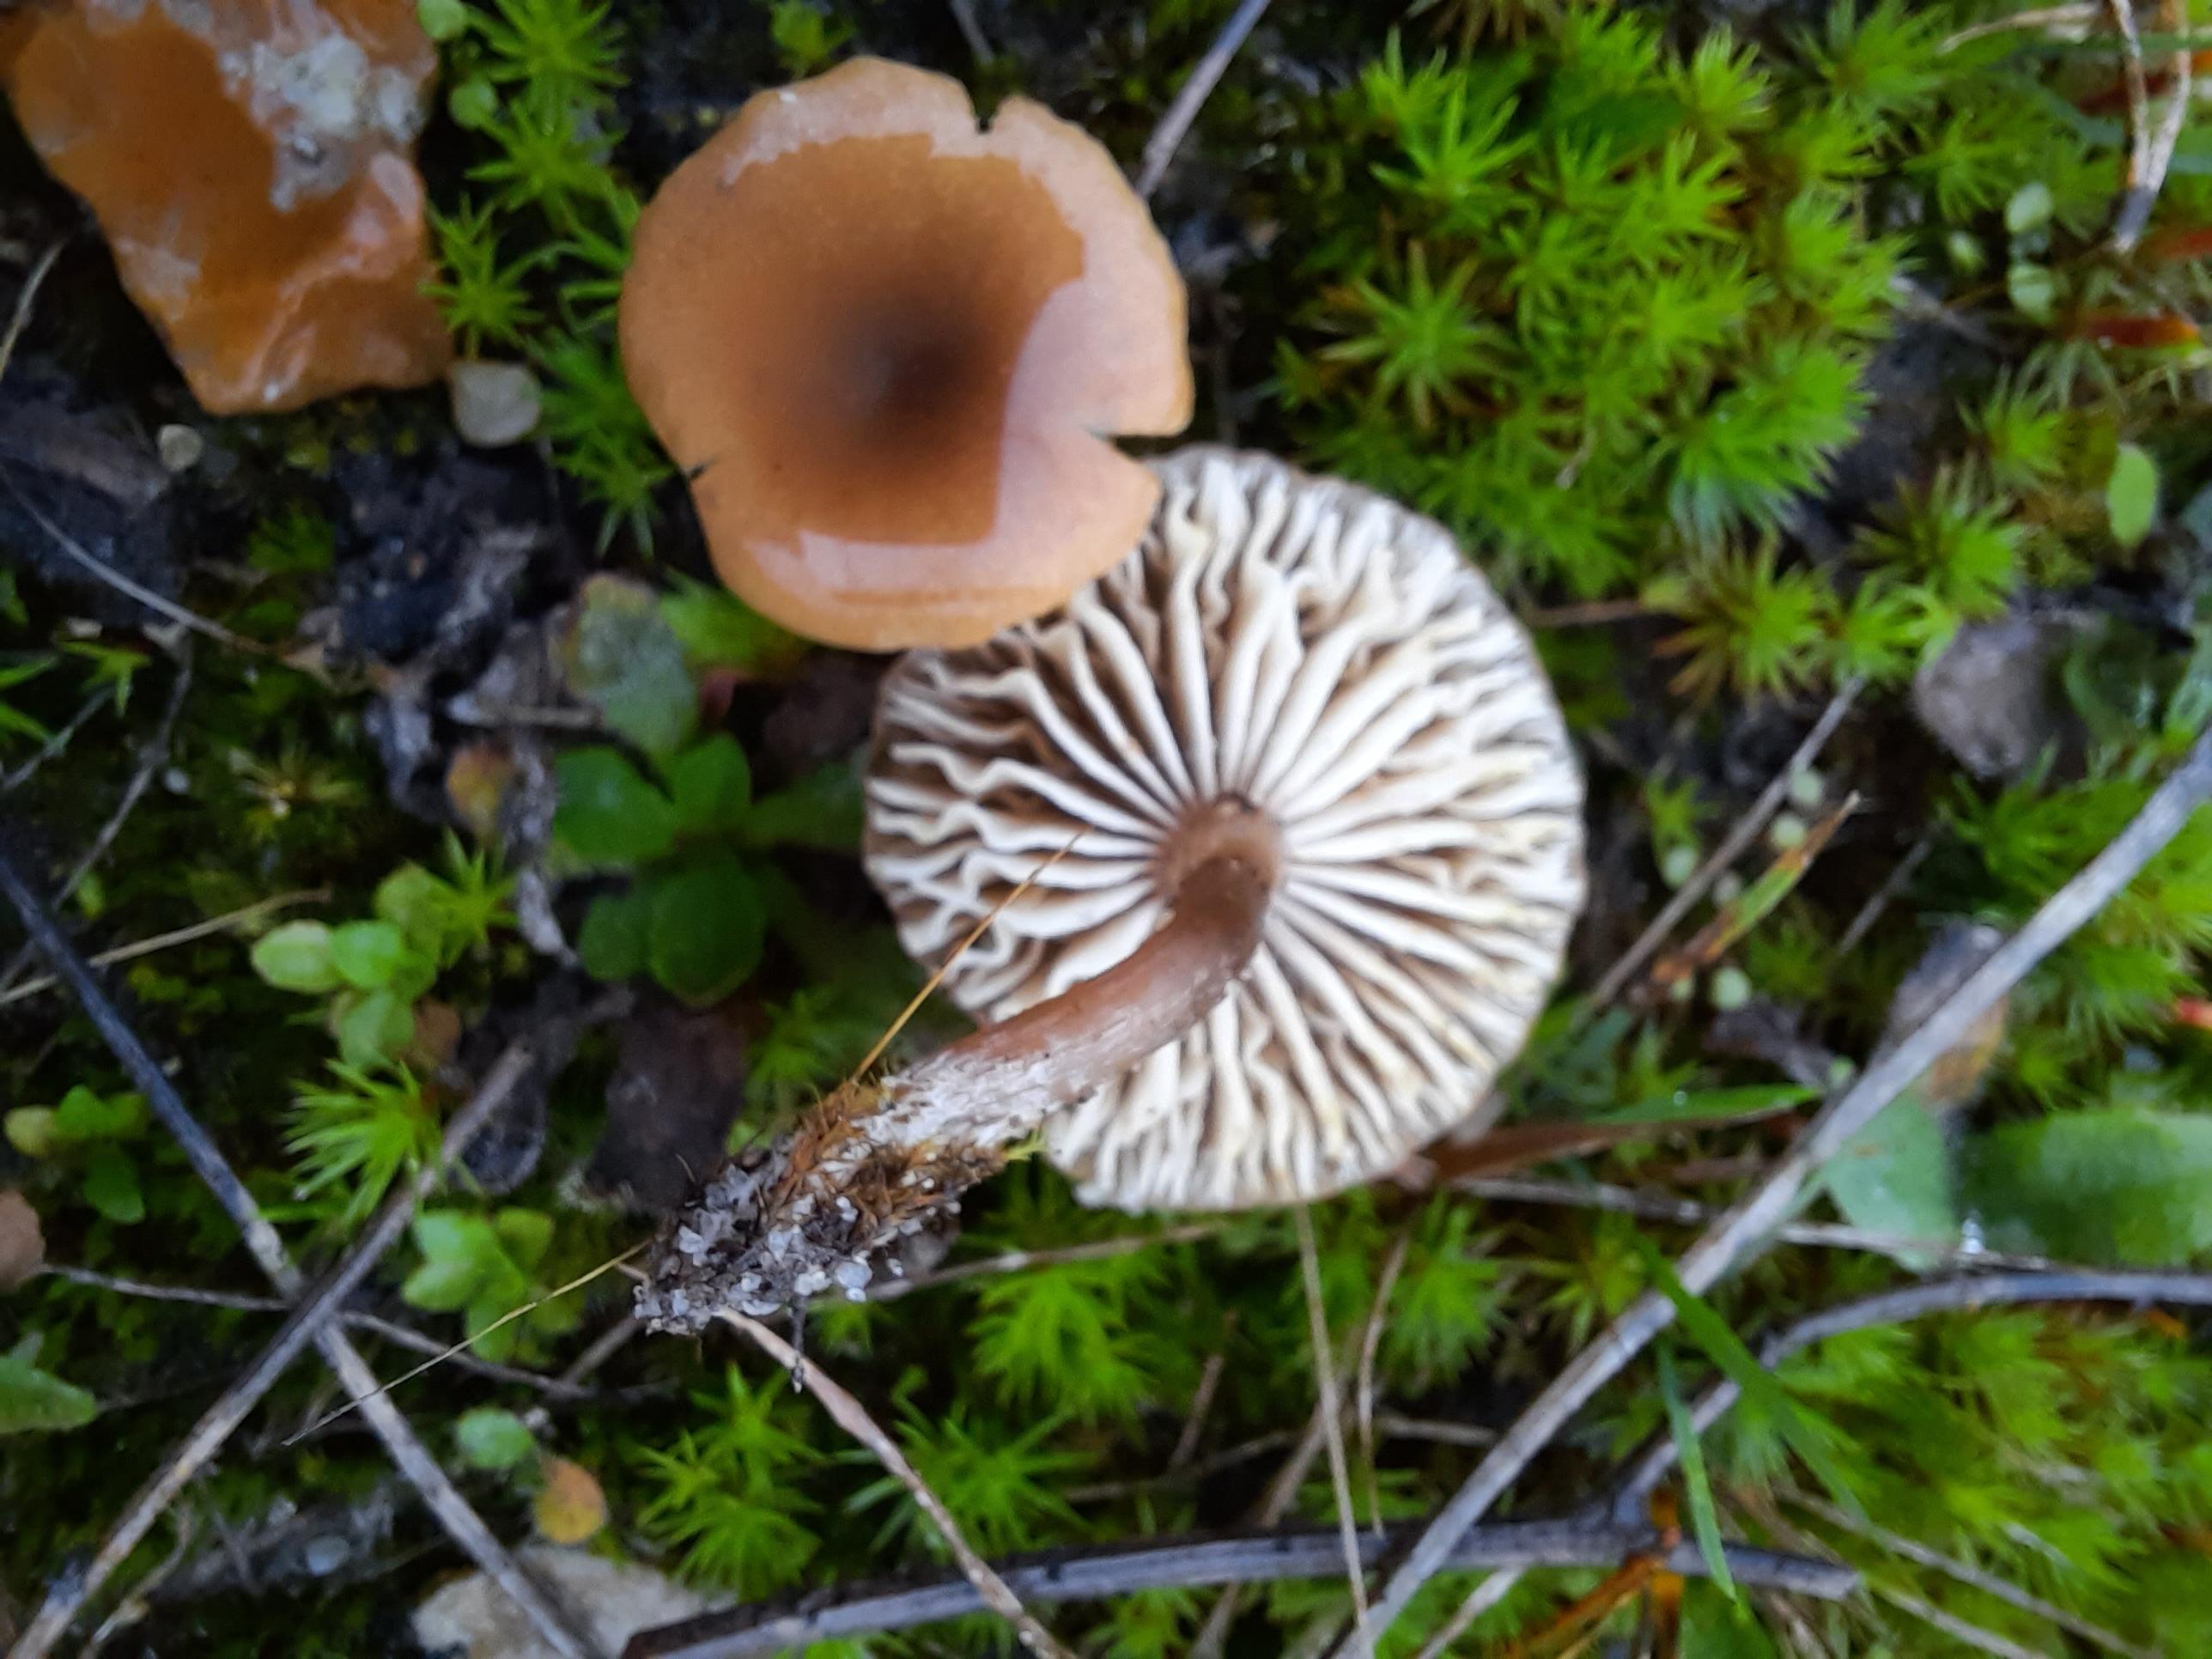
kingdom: Fungi
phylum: Basidiomycota
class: Agaricomycetes
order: Agaricales
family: Callistosporiaceae
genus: Pseudolaccaria
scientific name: Pseudolaccaria pachyphylla
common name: hvælvet tykblad
